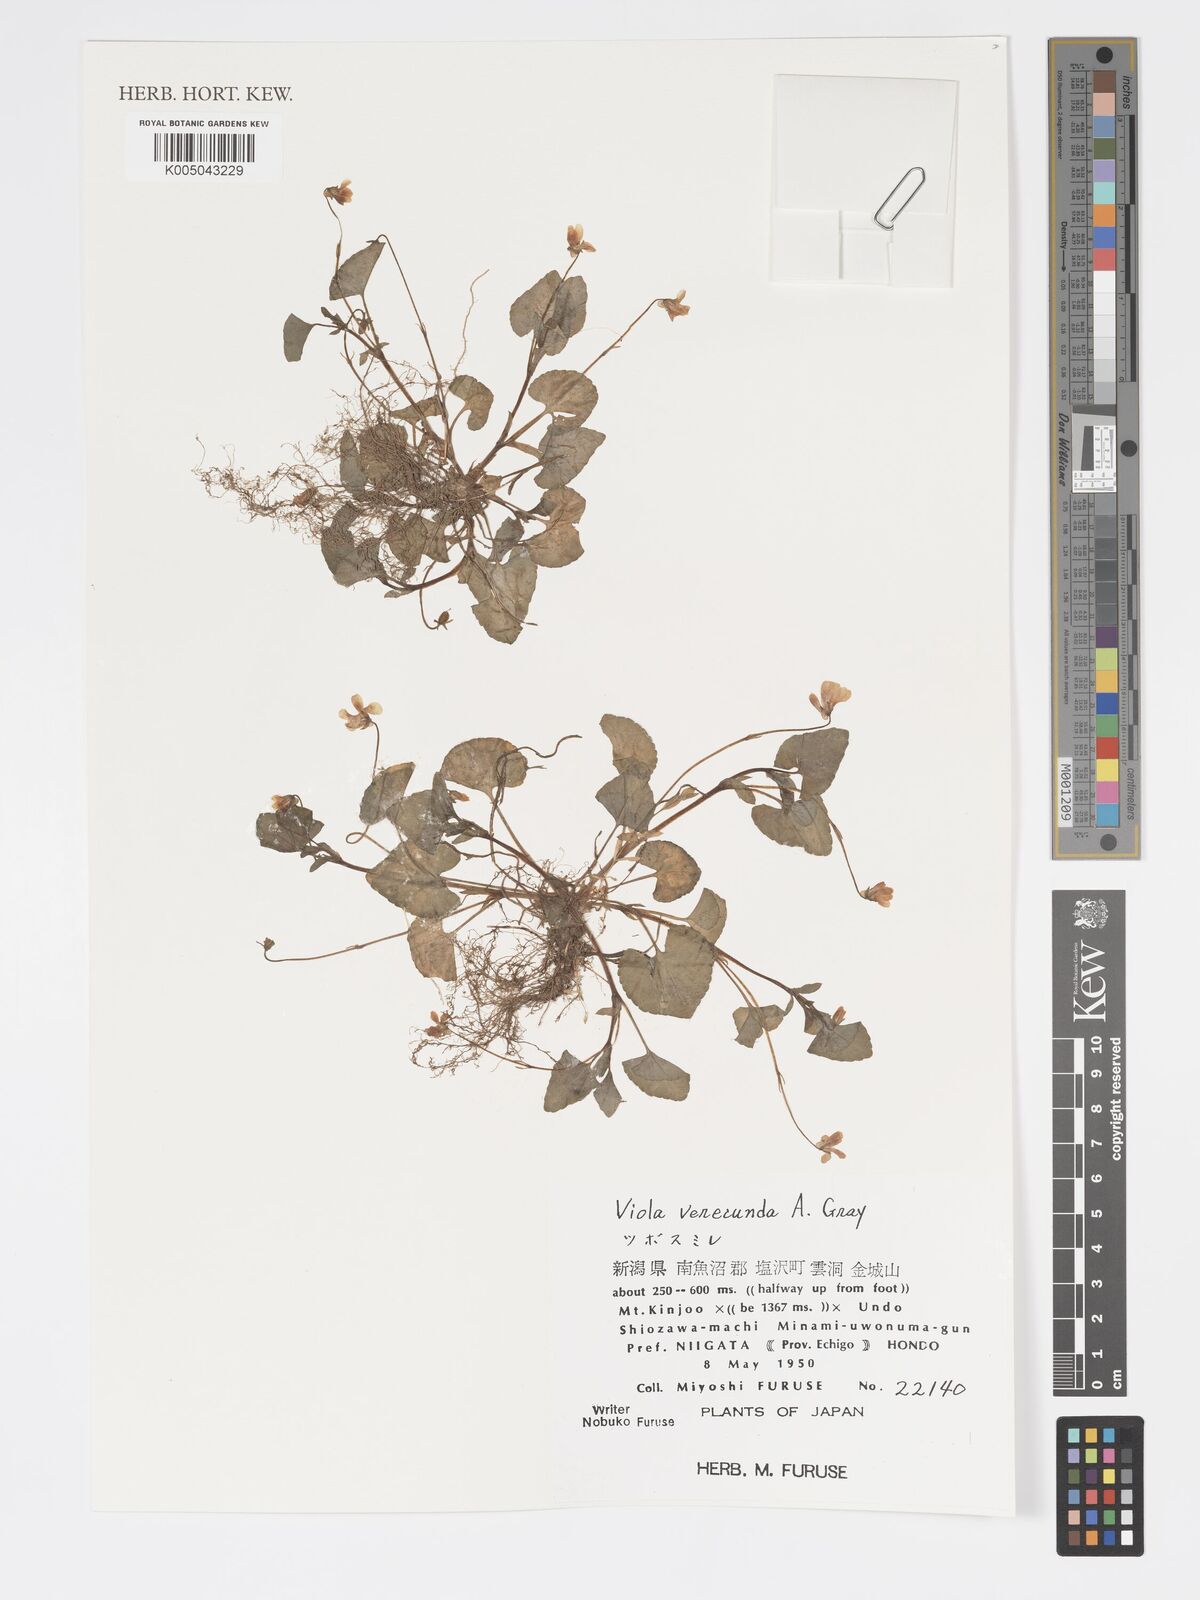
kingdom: Plantae
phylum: Tracheophyta
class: Magnoliopsida
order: Malpighiales
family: Violaceae
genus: Viola
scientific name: Viola hamiltoniana
